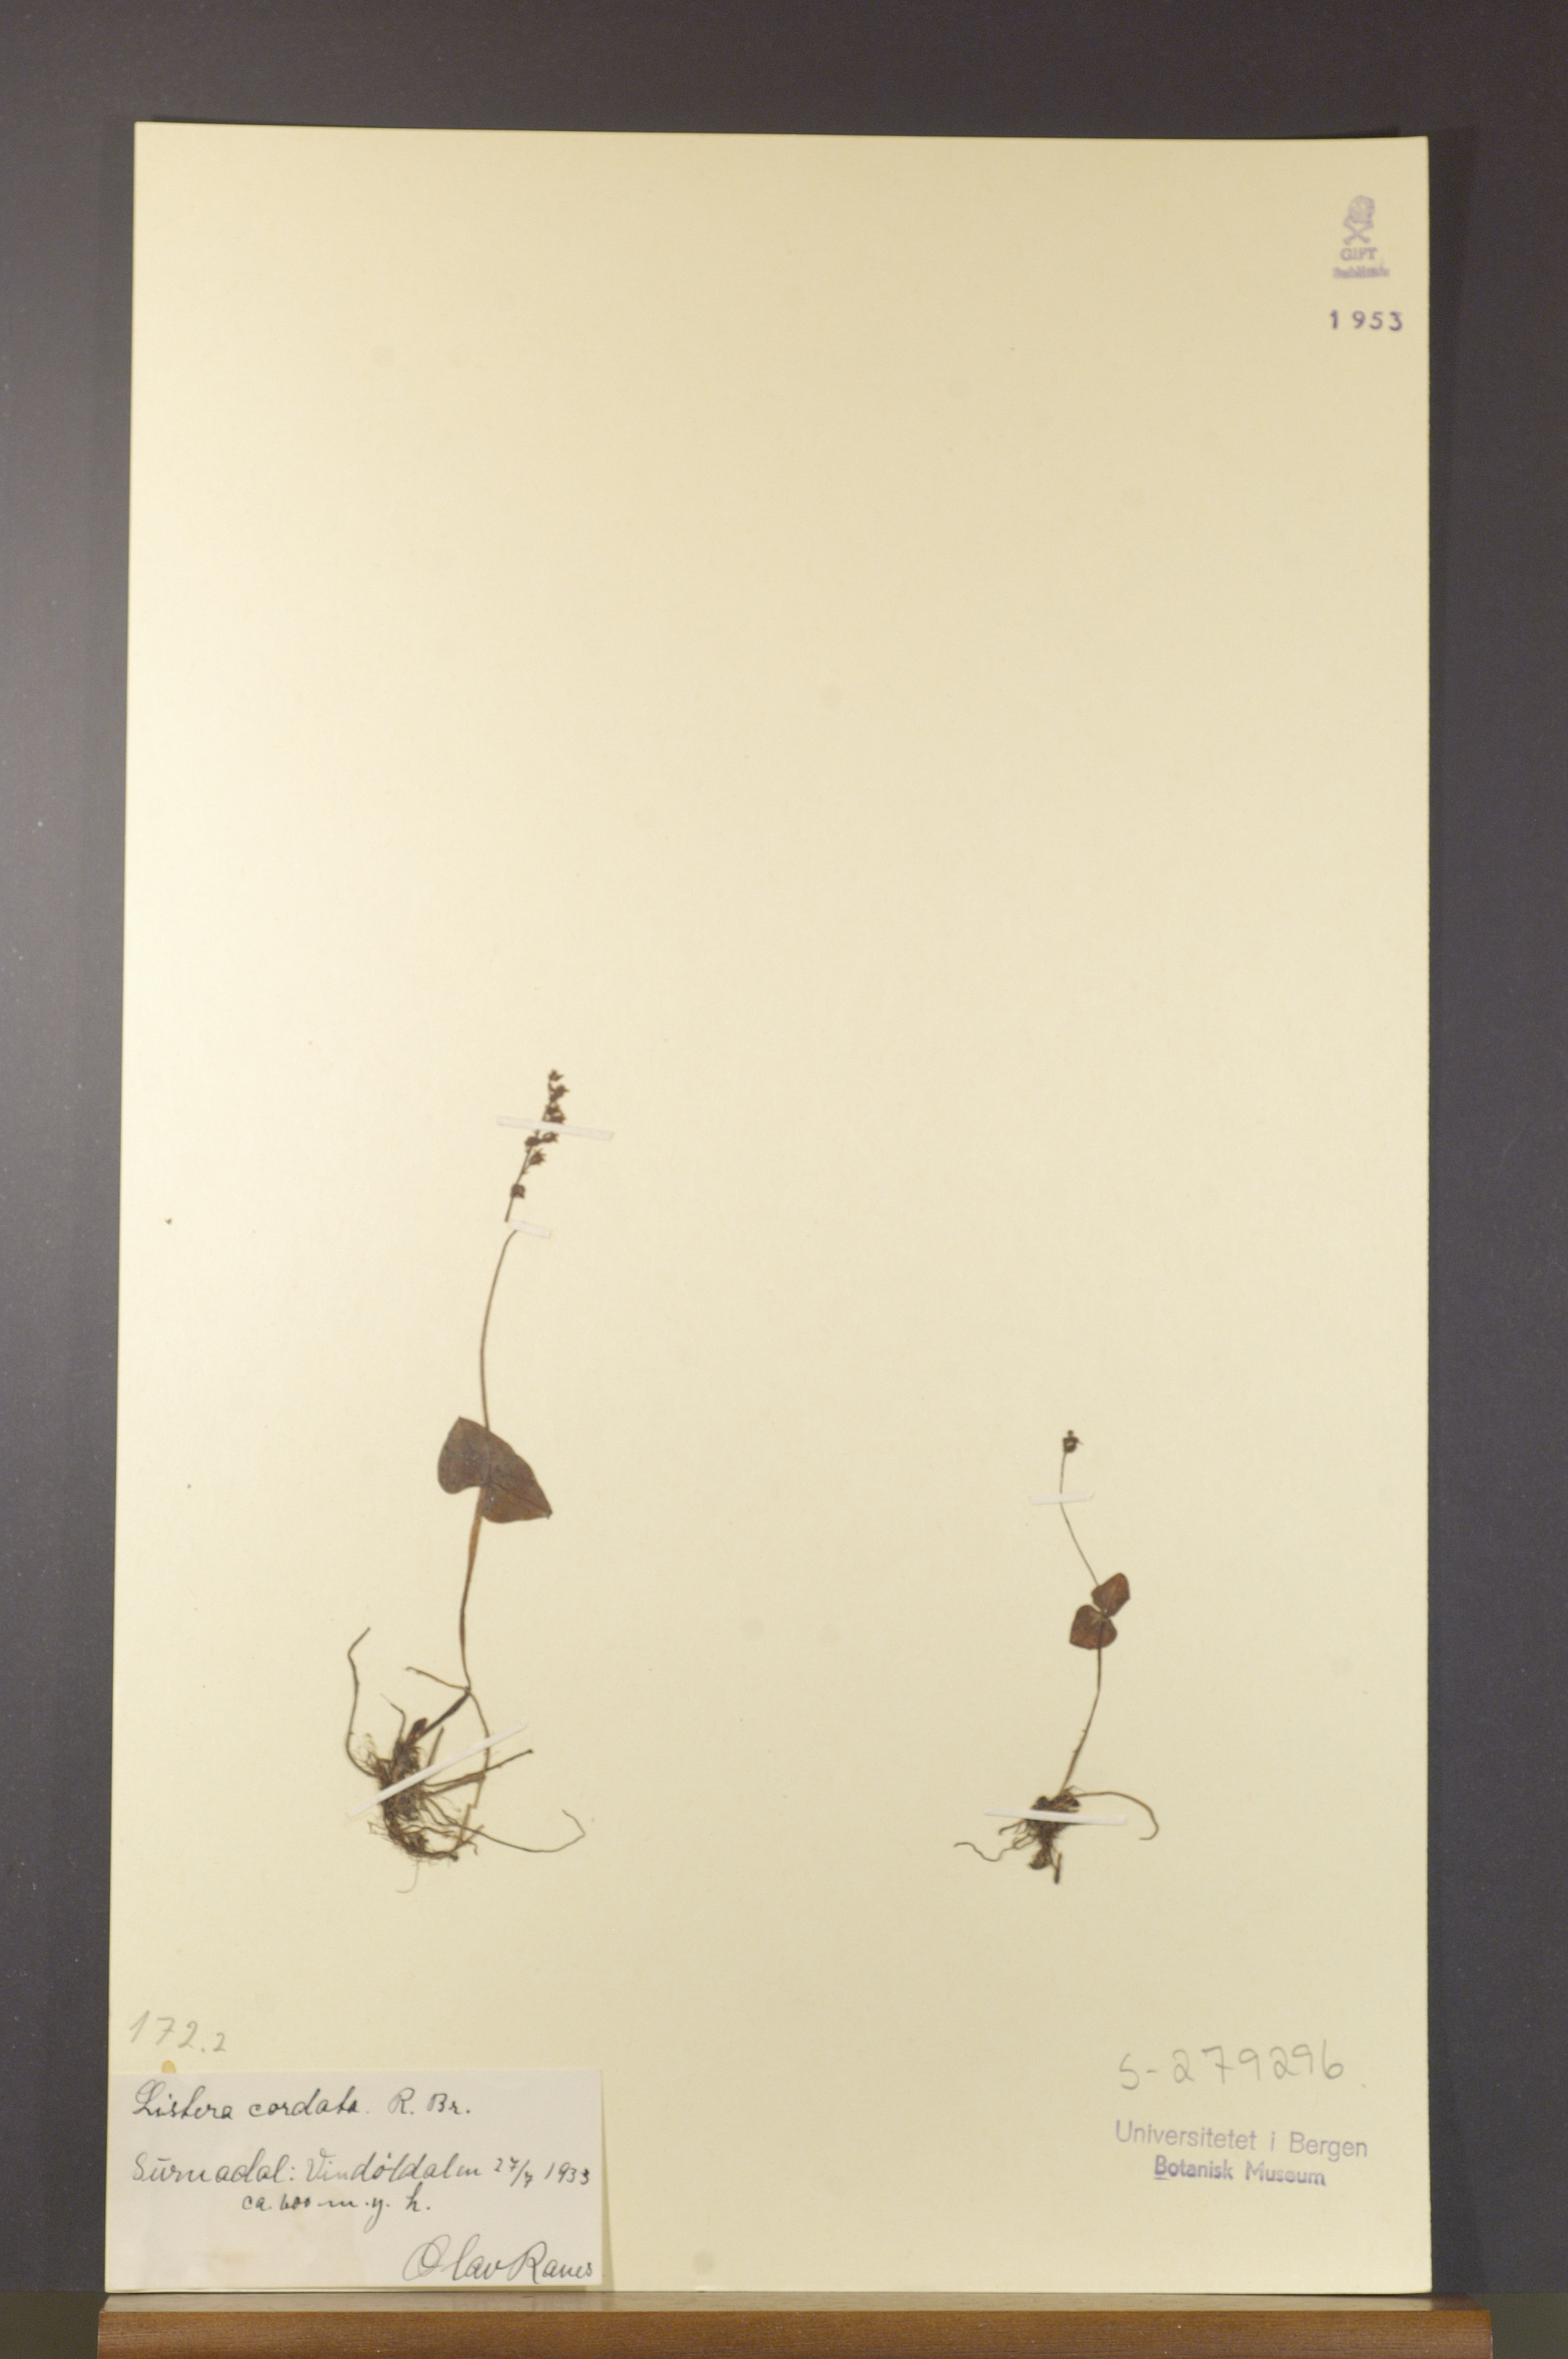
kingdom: Plantae
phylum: Tracheophyta
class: Liliopsida
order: Asparagales
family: Orchidaceae
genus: Neottia
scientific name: Neottia cordata
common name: Lesser twayblade
